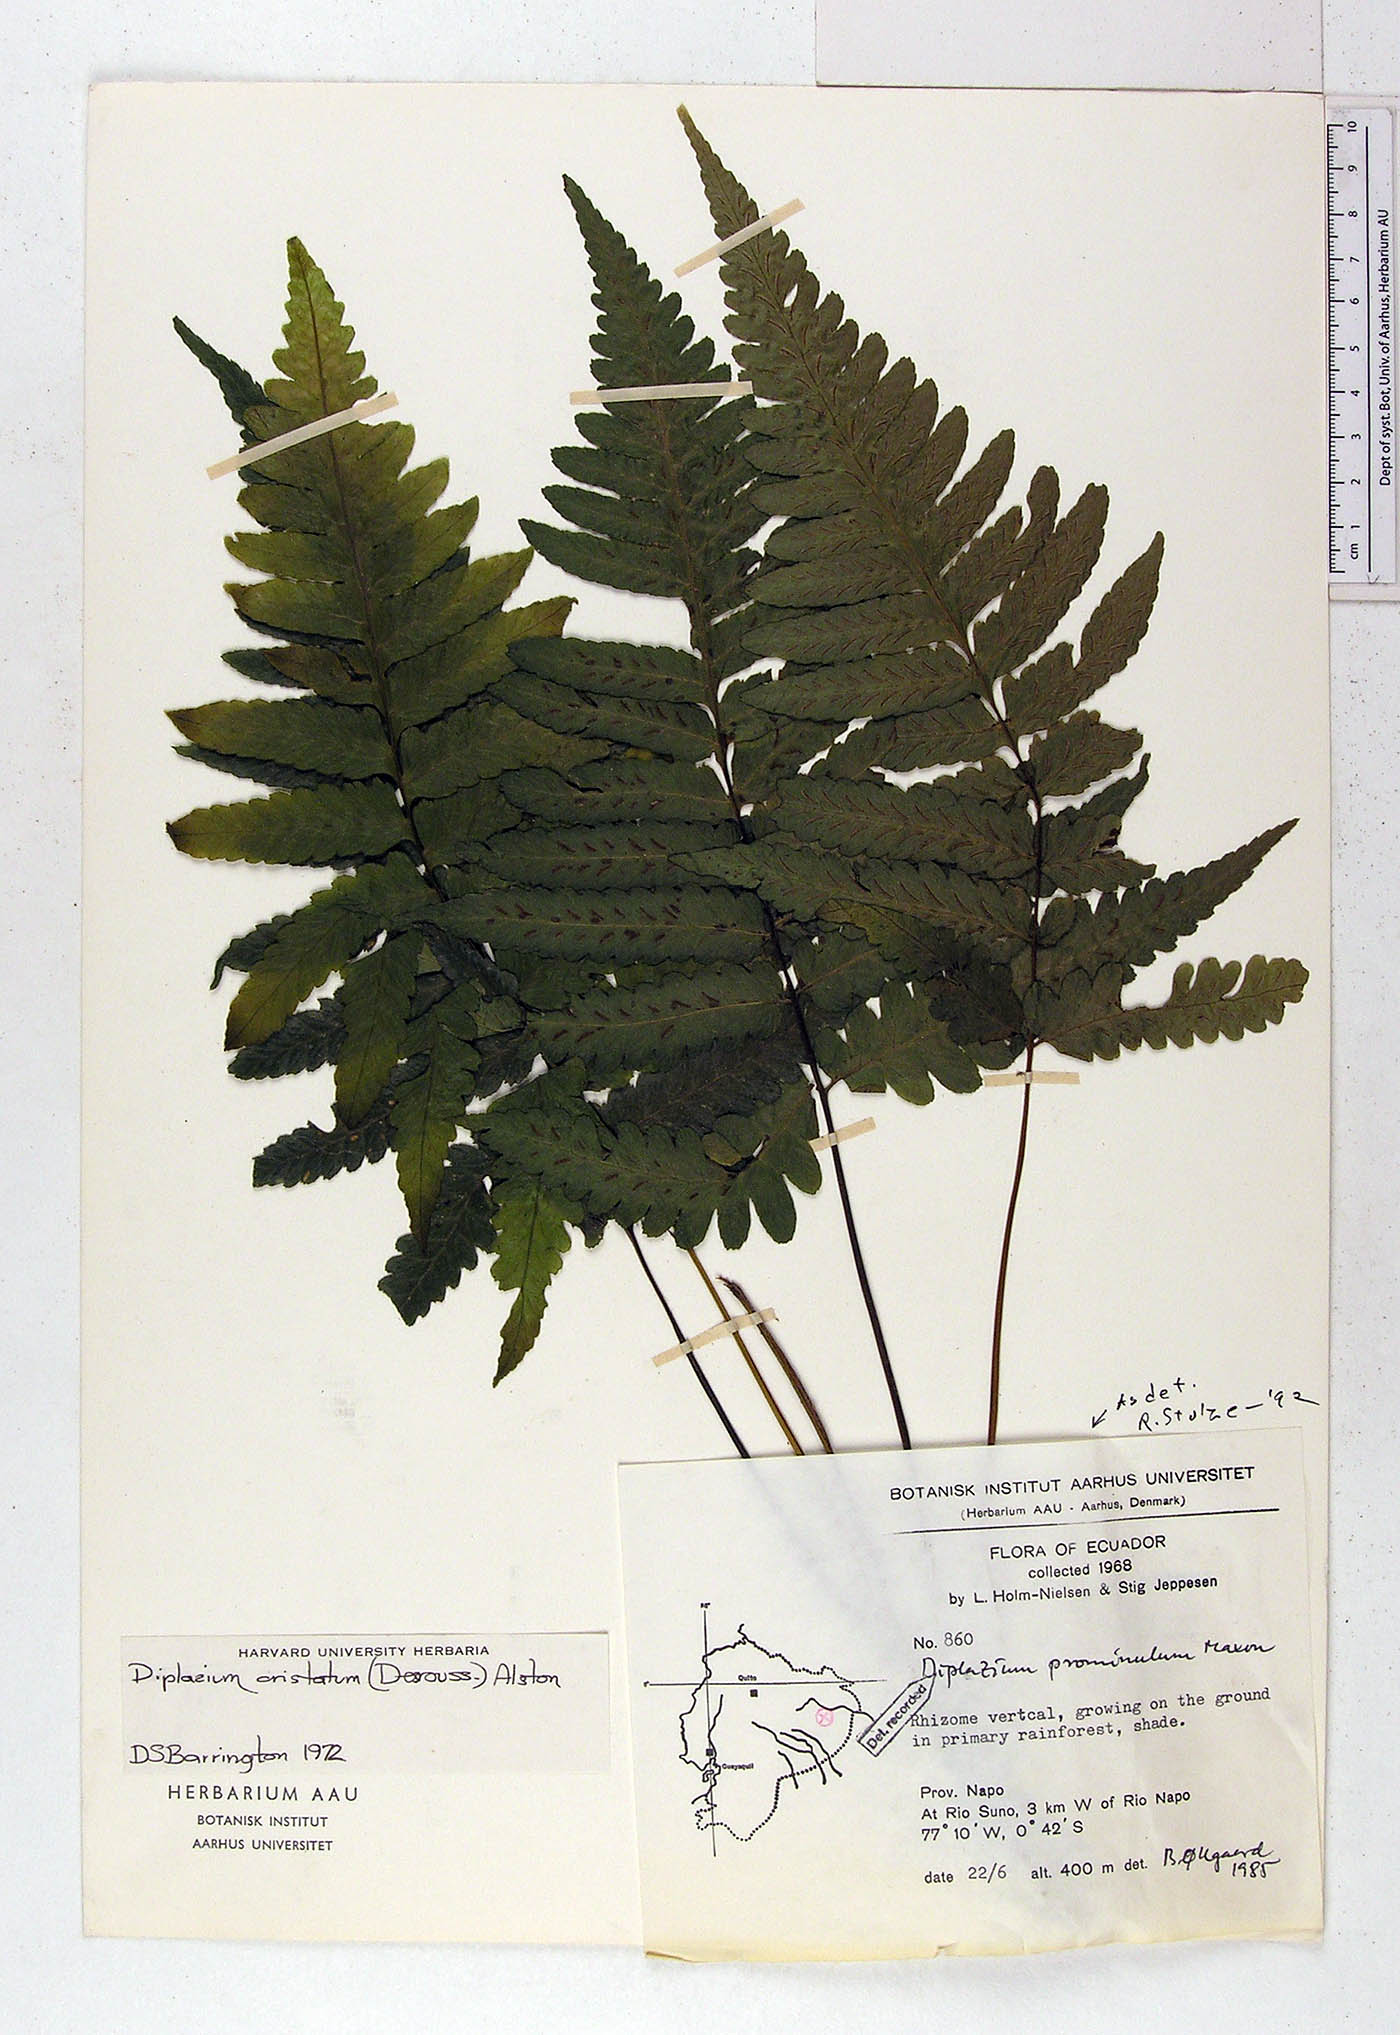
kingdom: Plantae
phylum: Tracheophyta
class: Polypodiopsida
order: Polypodiales
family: Athyriaceae
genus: Diplazium
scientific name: Diplazium prominulum
